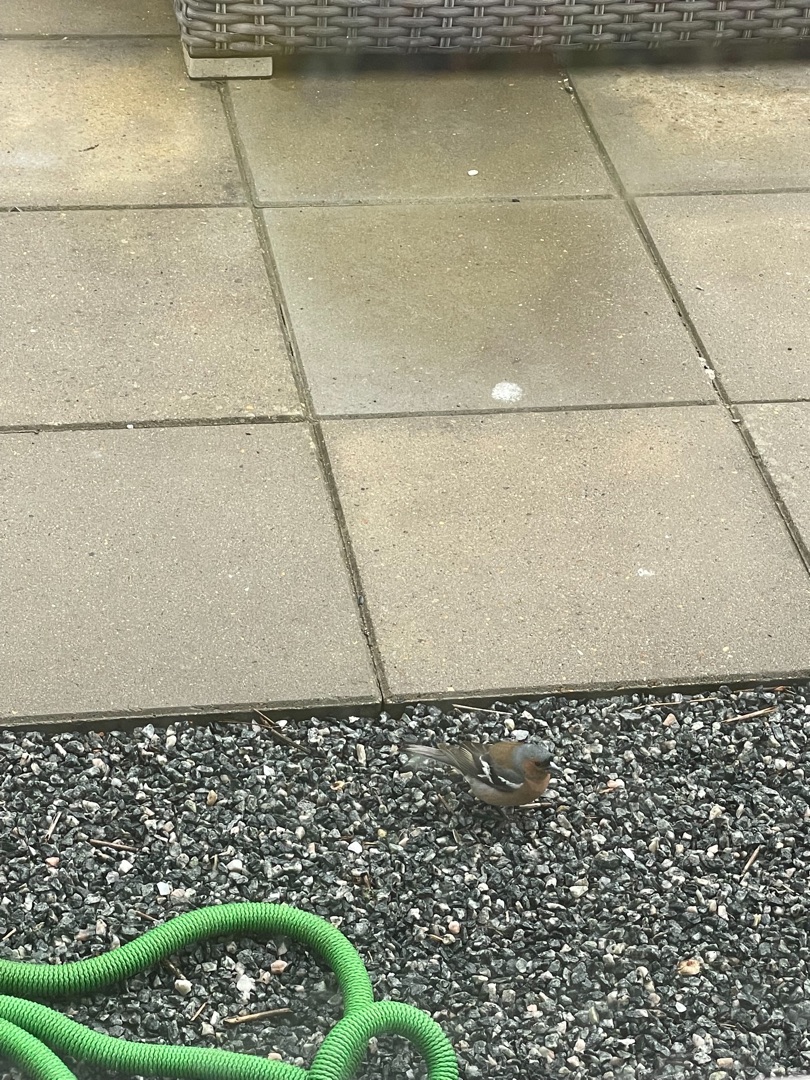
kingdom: Animalia
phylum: Chordata
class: Aves
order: Passeriformes
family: Fringillidae
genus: Fringilla
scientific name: Fringilla coelebs
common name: Bogfinke
